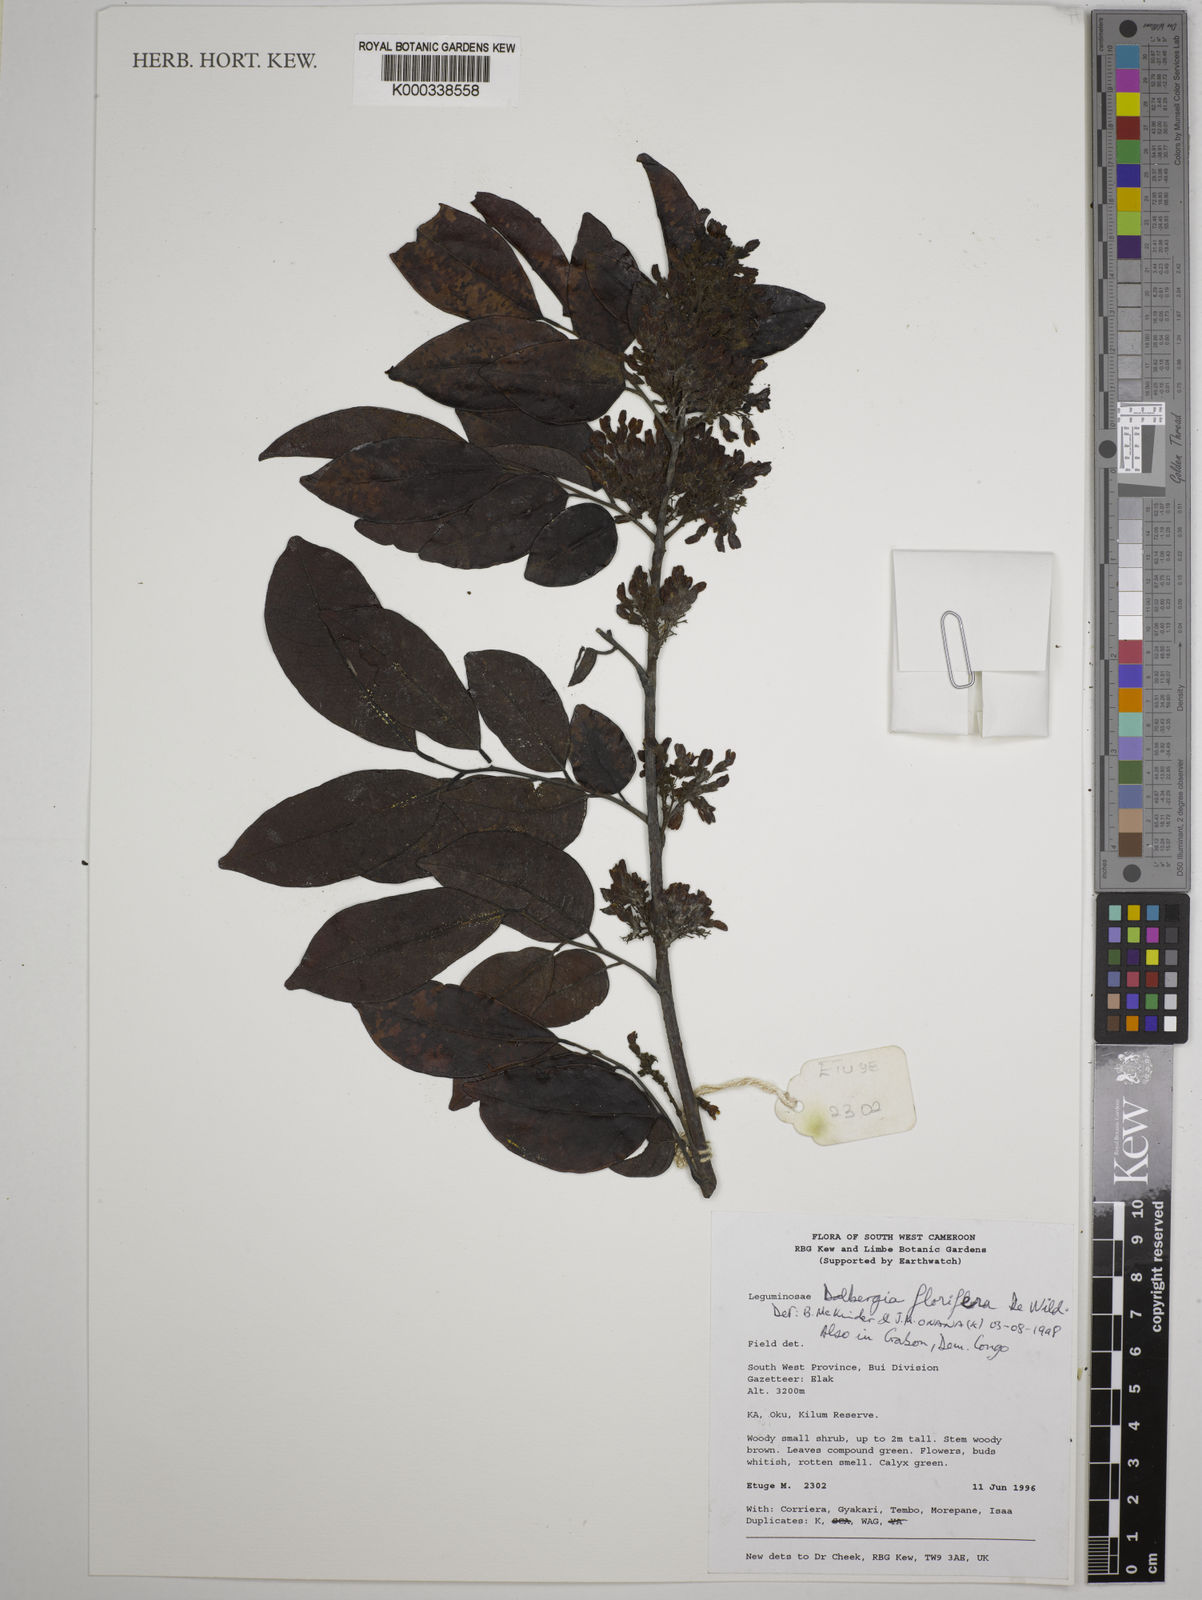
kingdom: Plantae
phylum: Tracheophyta
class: Magnoliopsida
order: Fabales
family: Fabaceae
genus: Dalbergia
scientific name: Dalbergia florifera
